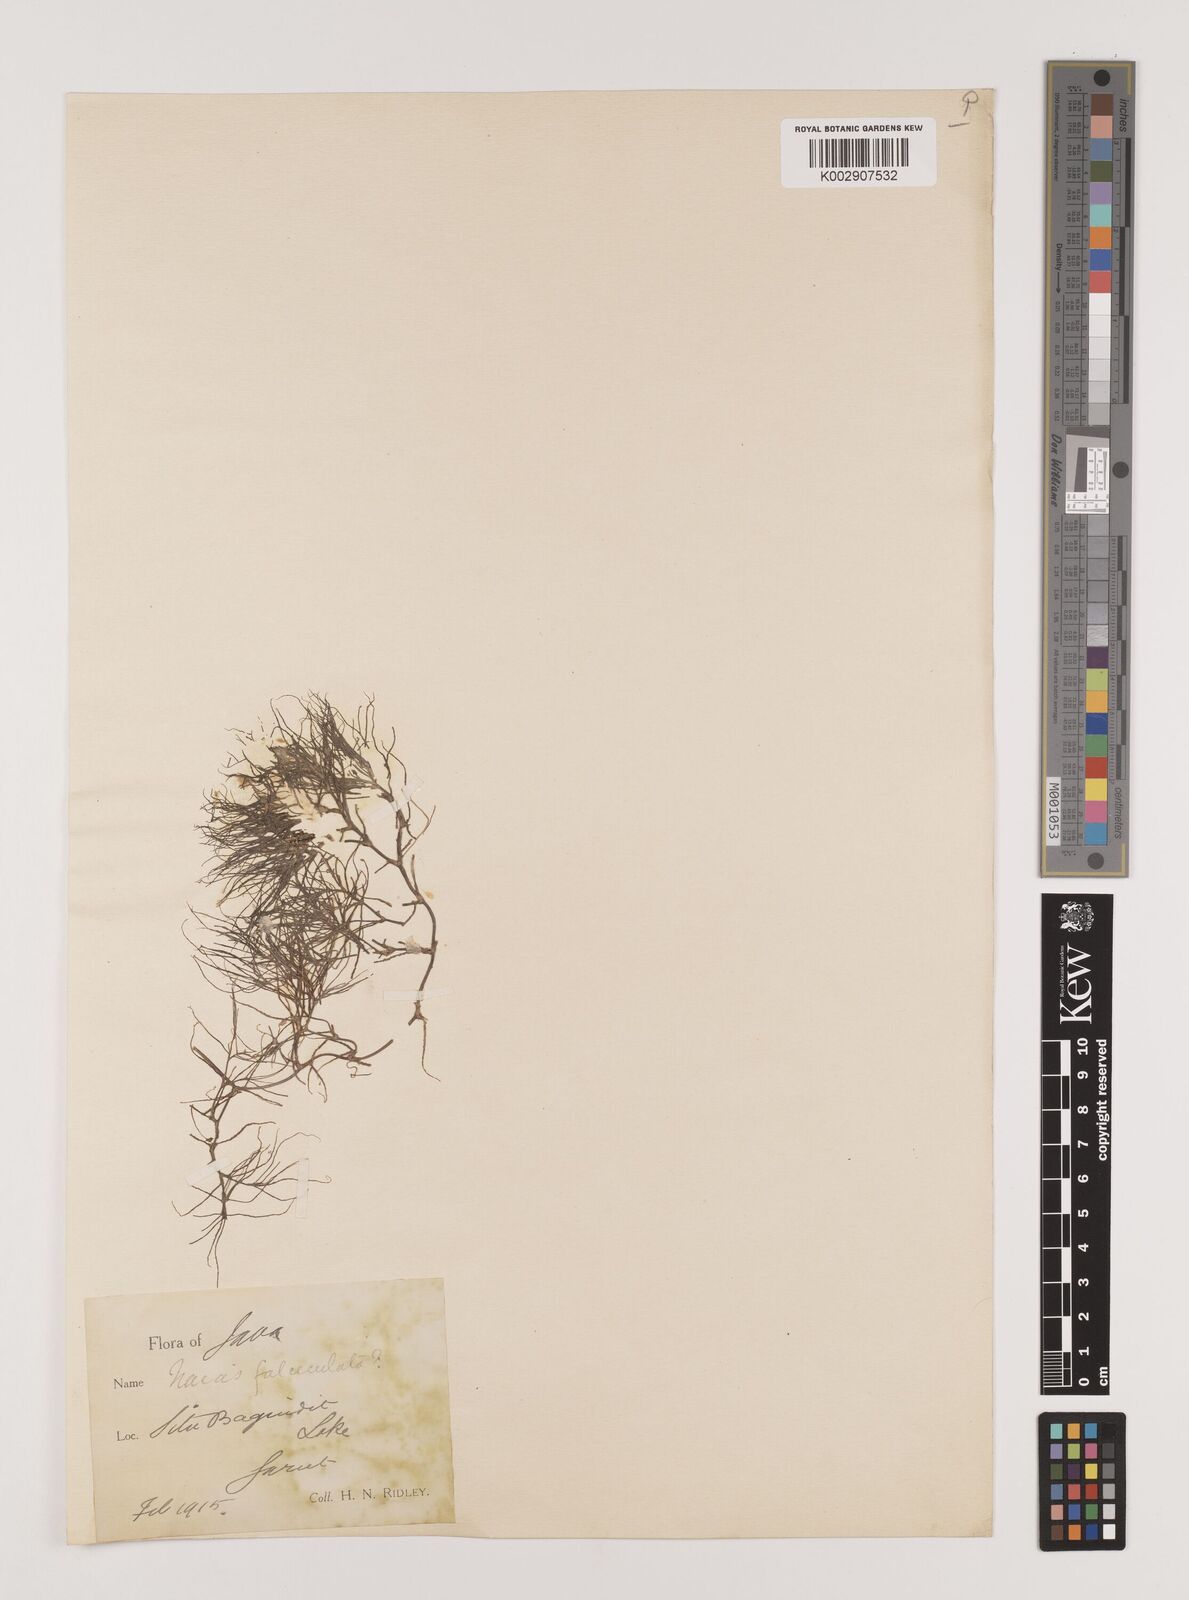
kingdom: Plantae
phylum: Tracheophyta
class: Liliopsida
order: Alismatales
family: Hydrocharitaceae
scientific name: Hydrocharitaceae
